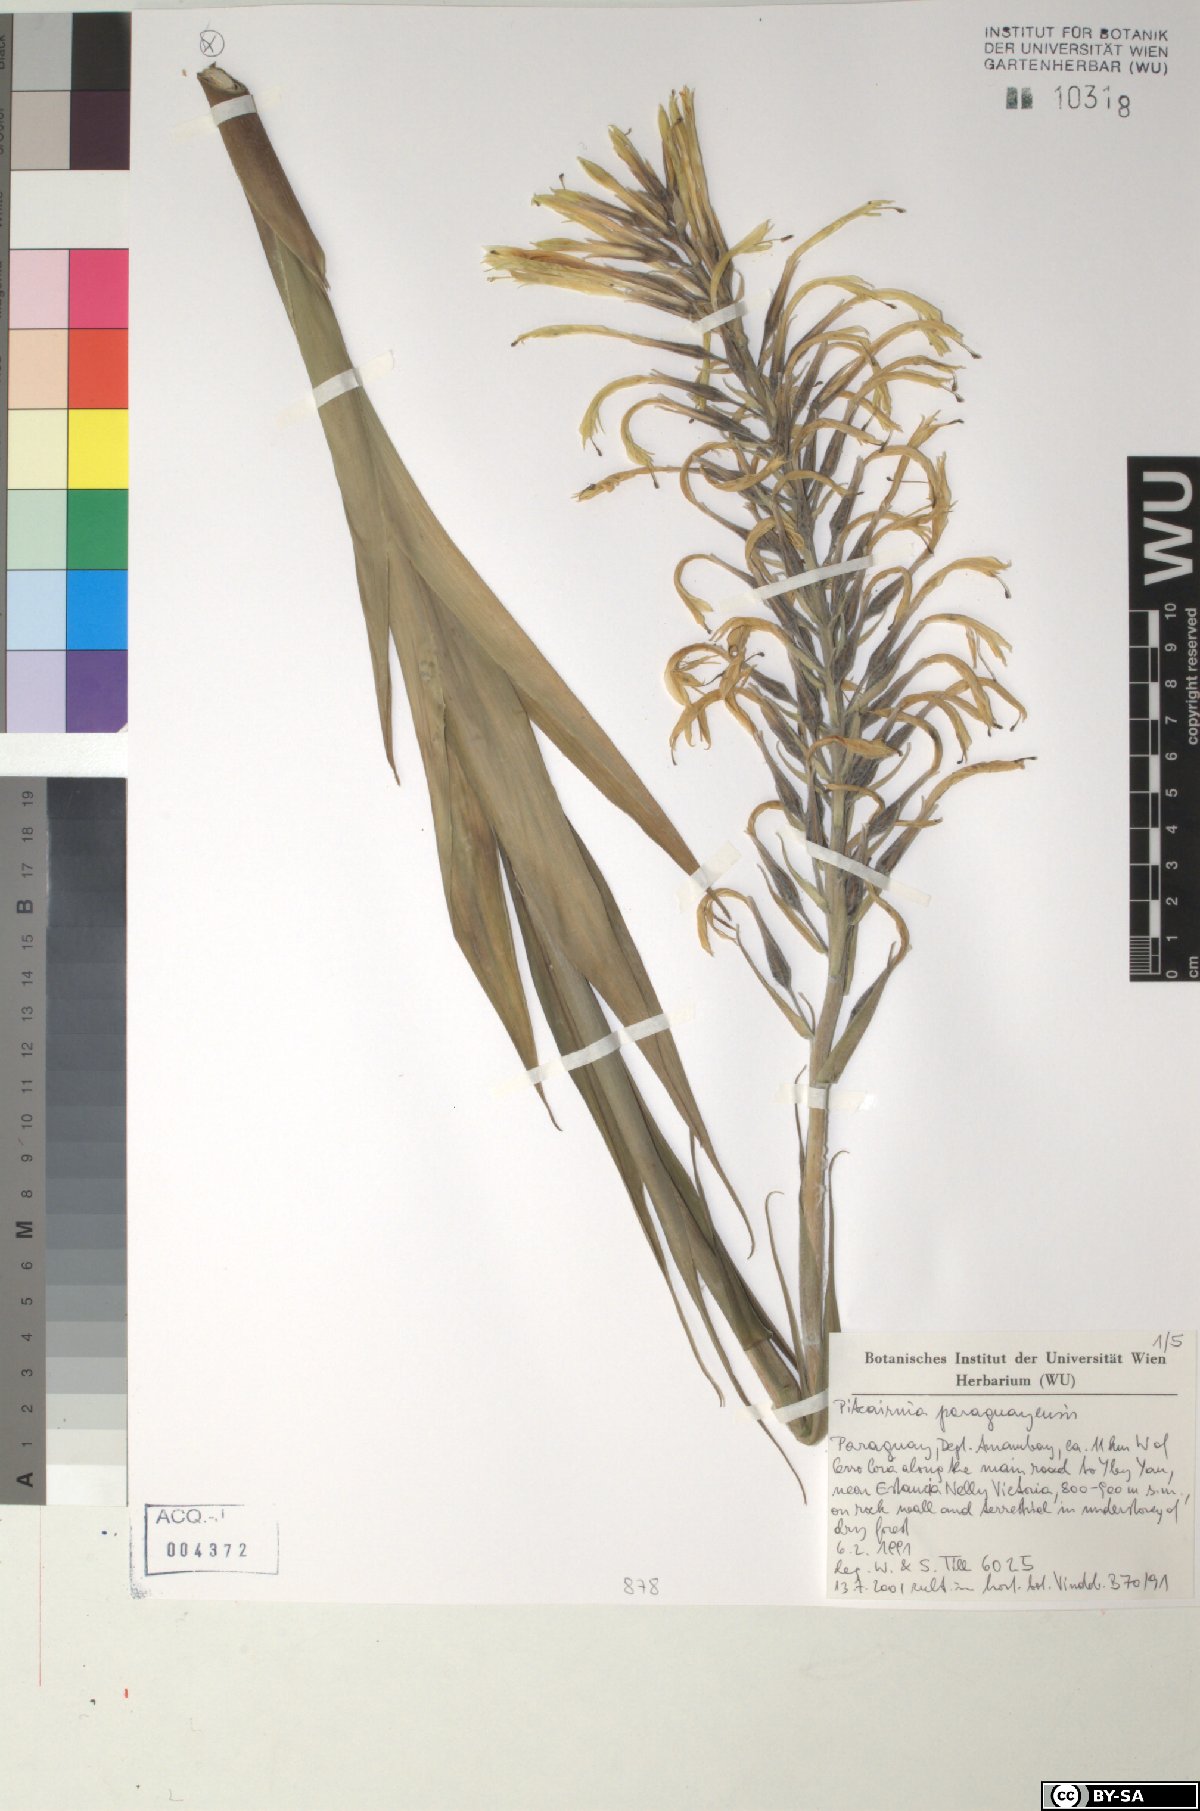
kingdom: Plantae
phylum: Tracheophyta
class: Liliopsida
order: Poales
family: Bromeliaceae
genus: Pitcairnia
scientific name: Pitcairnia paraguayensis
